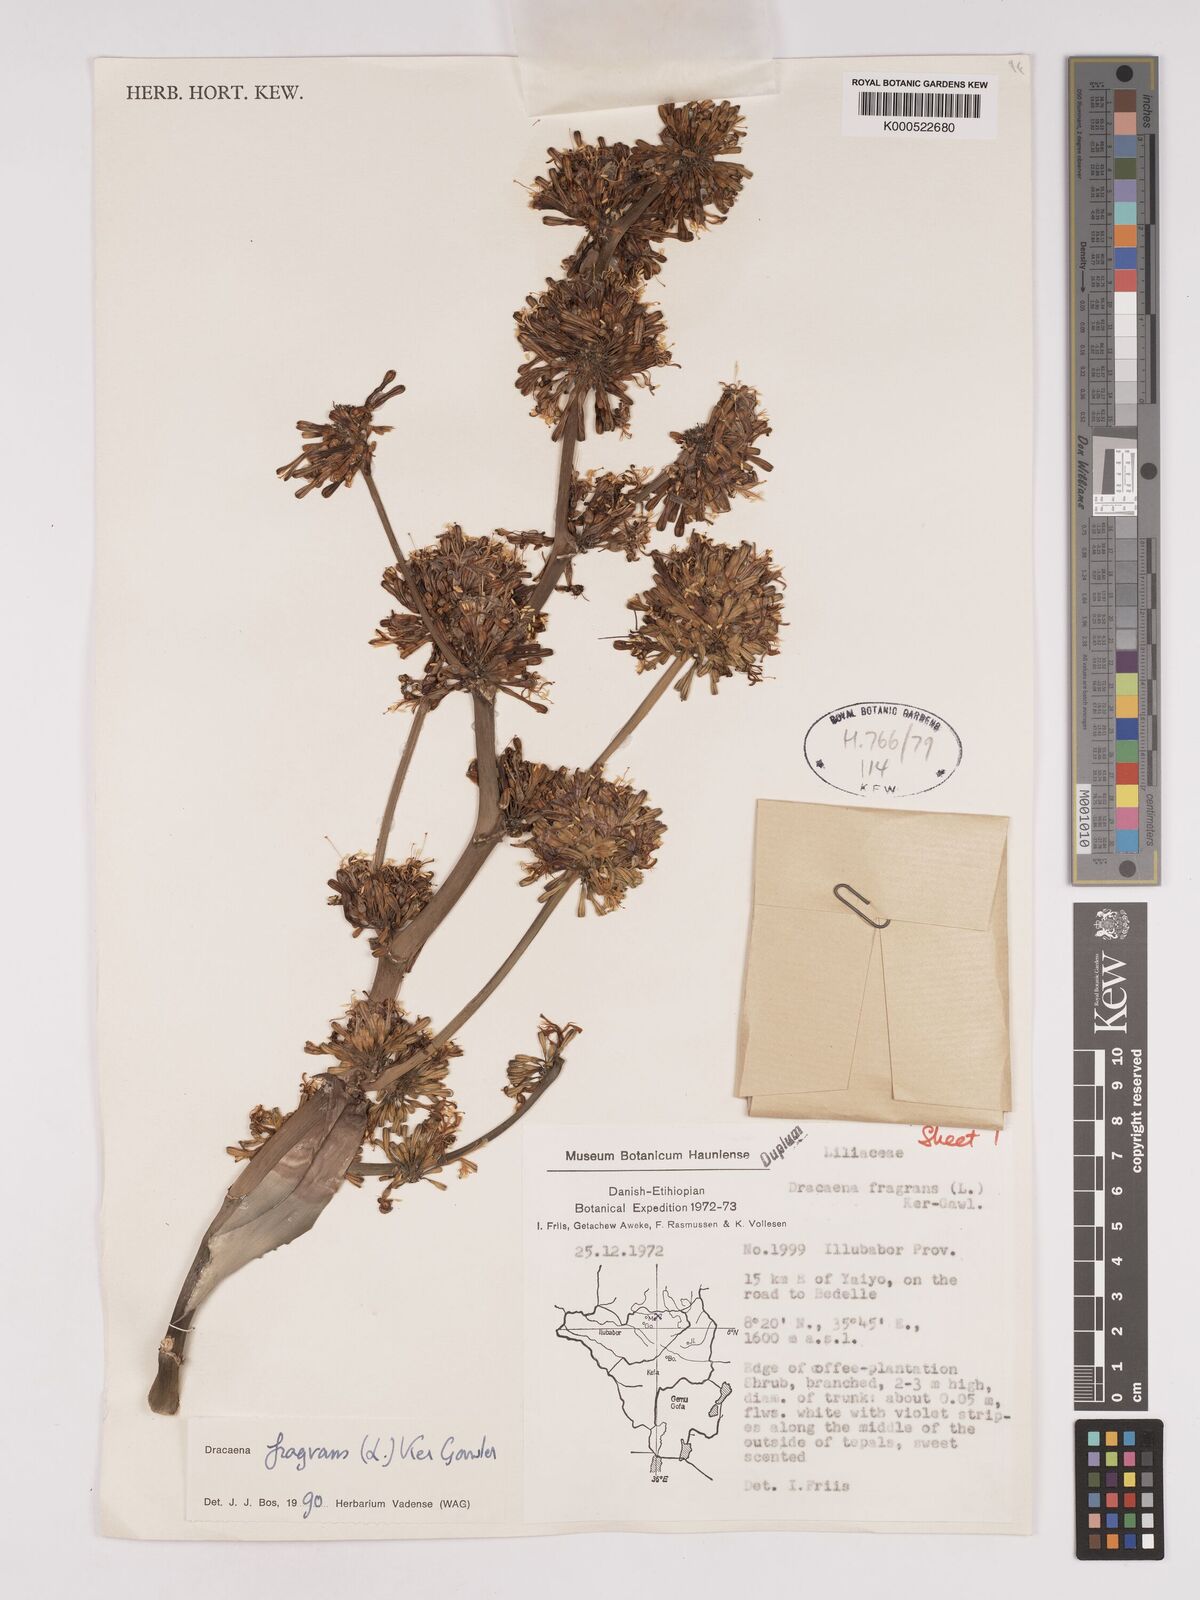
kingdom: Plantae
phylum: Tracheophyta
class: Liliopsida
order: Asparagales
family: Asparagaceae
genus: Dracaena
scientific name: Dracaena fragrans
